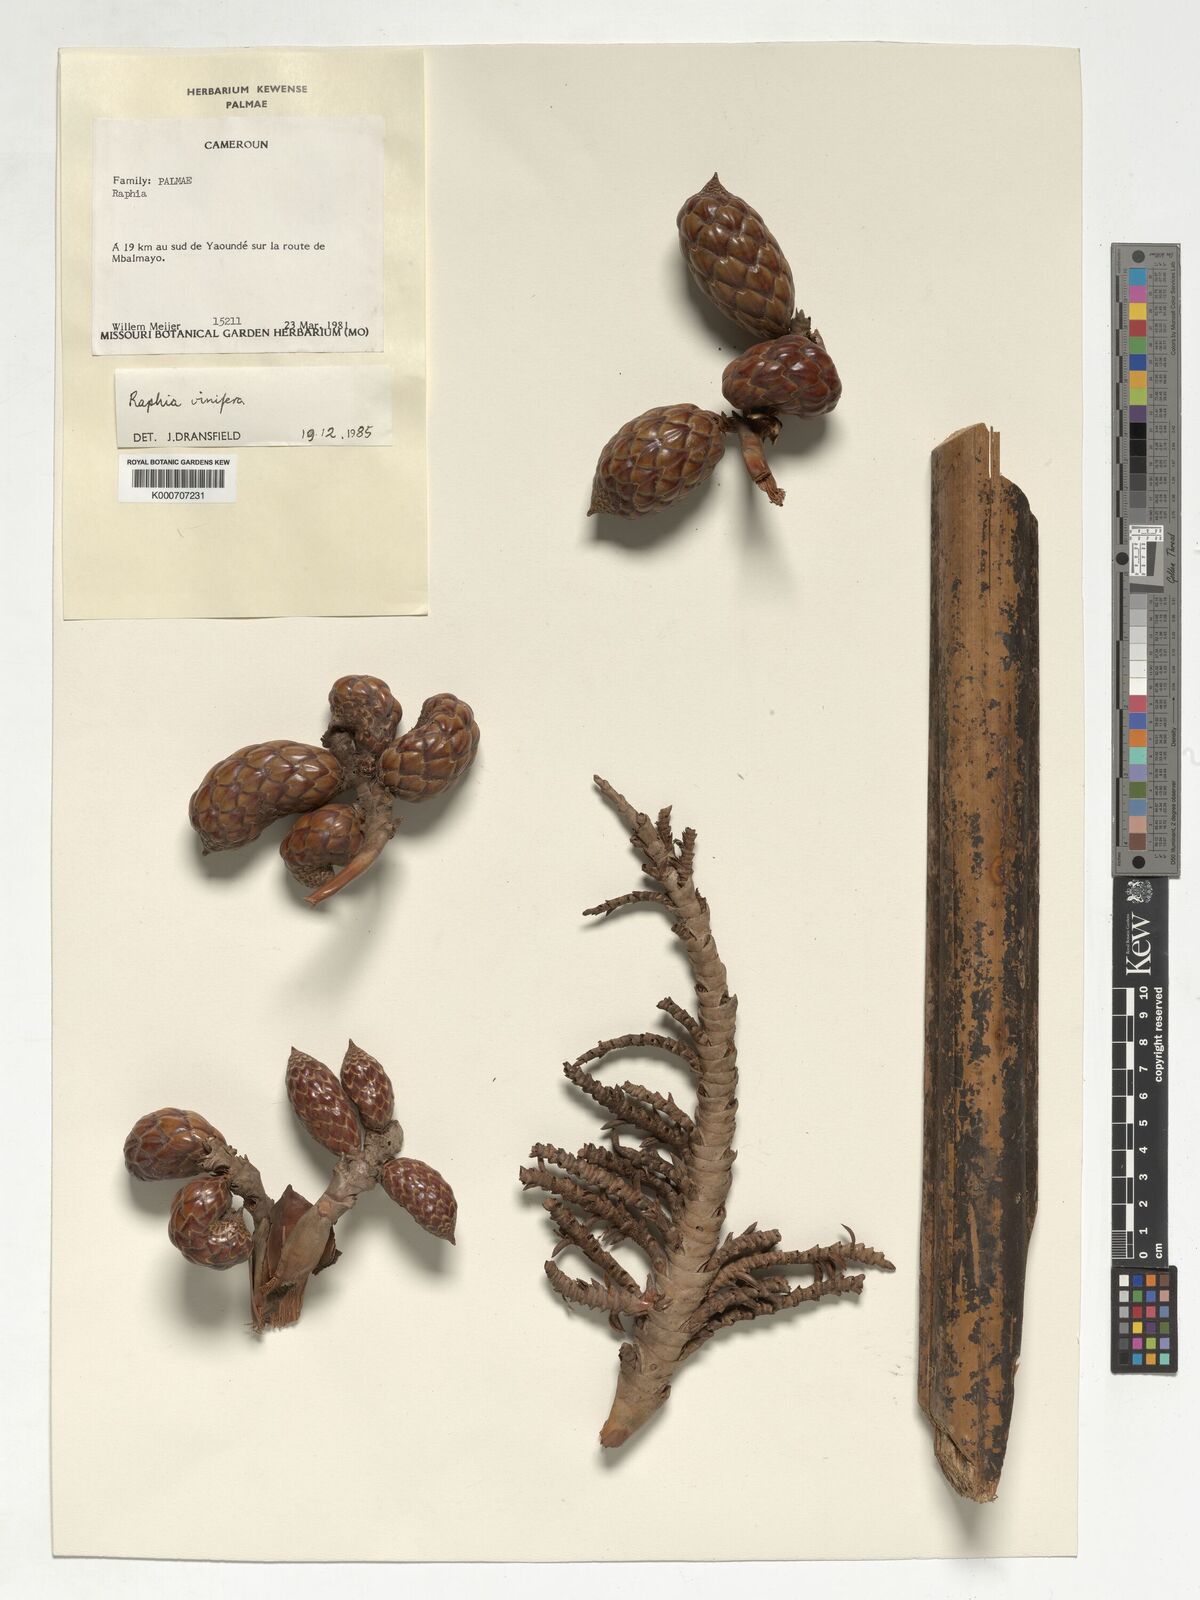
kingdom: Plantae
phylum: Tracheophyta
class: Liliopsida
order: Arecales
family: Arecaceae
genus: Raphia
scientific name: Raphia vinifera
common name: Raphia palm
